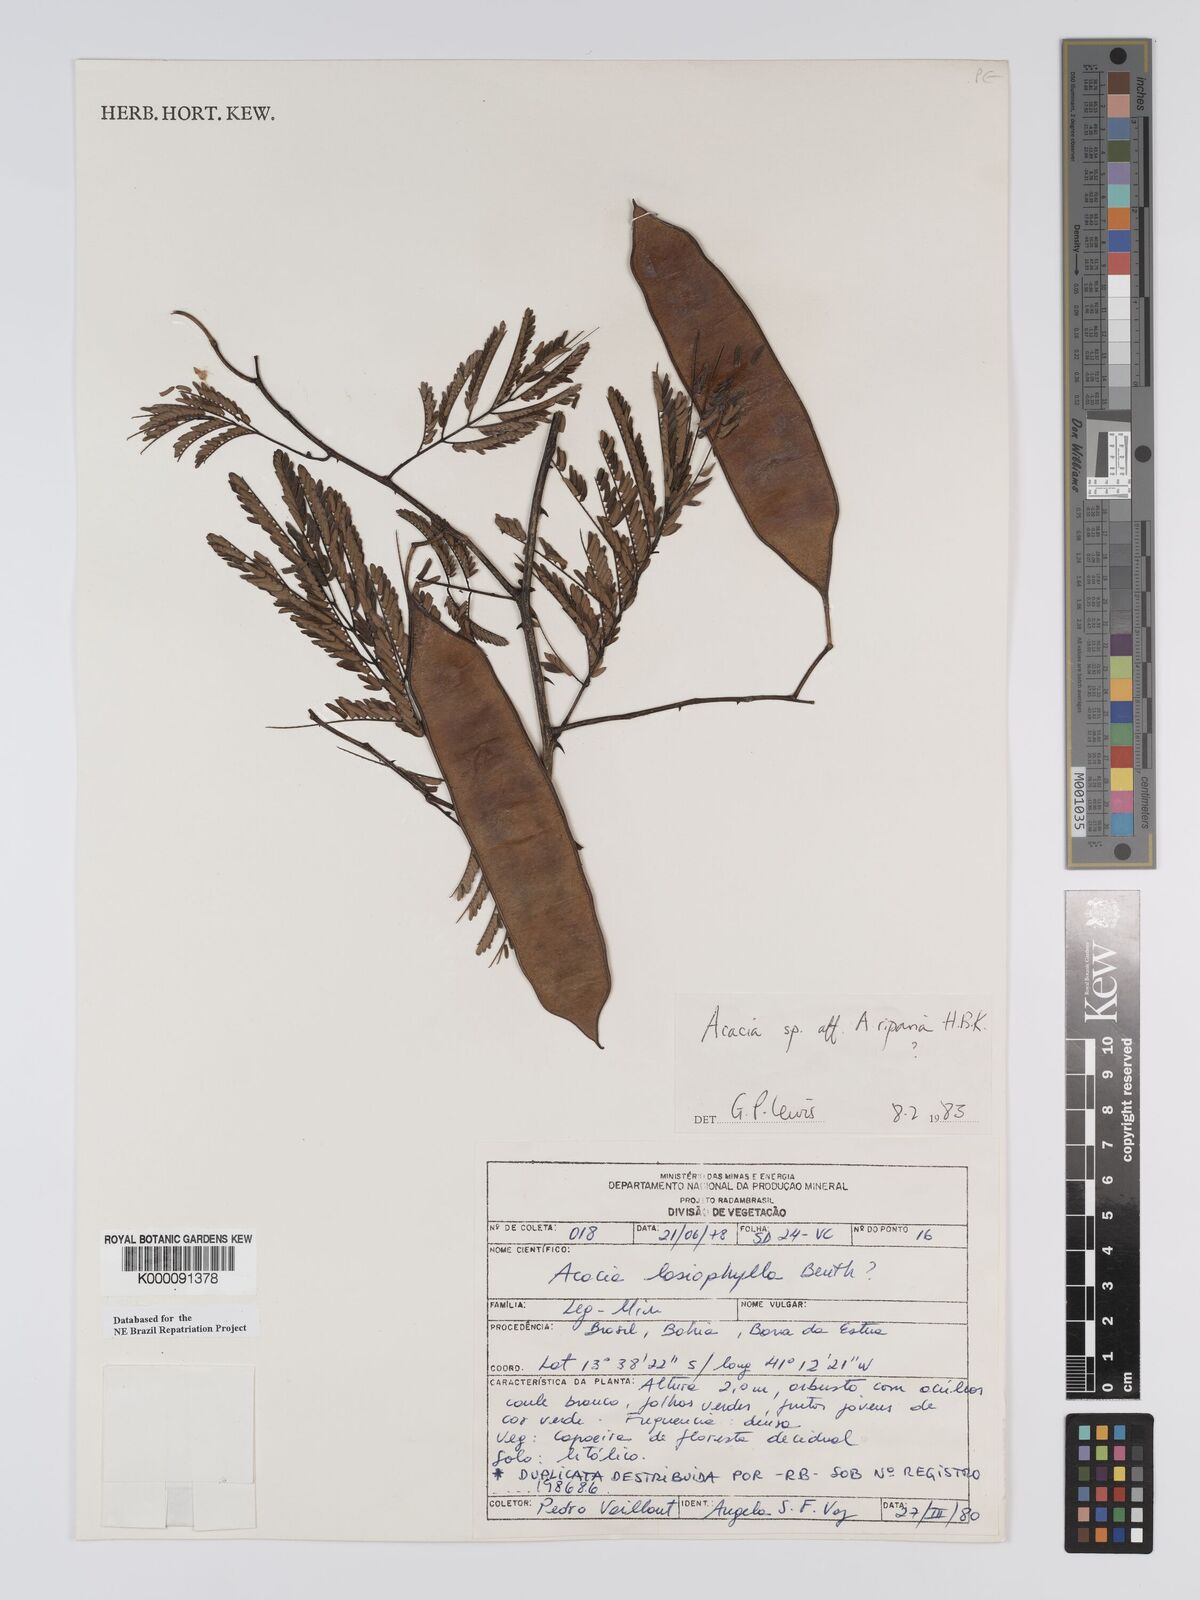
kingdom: Plantae
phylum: Tracheophyta
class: Magnoliopsida
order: Fabales
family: Fabaceae
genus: Senegalia
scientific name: Senegalia riparia
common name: Catch-and-keep
